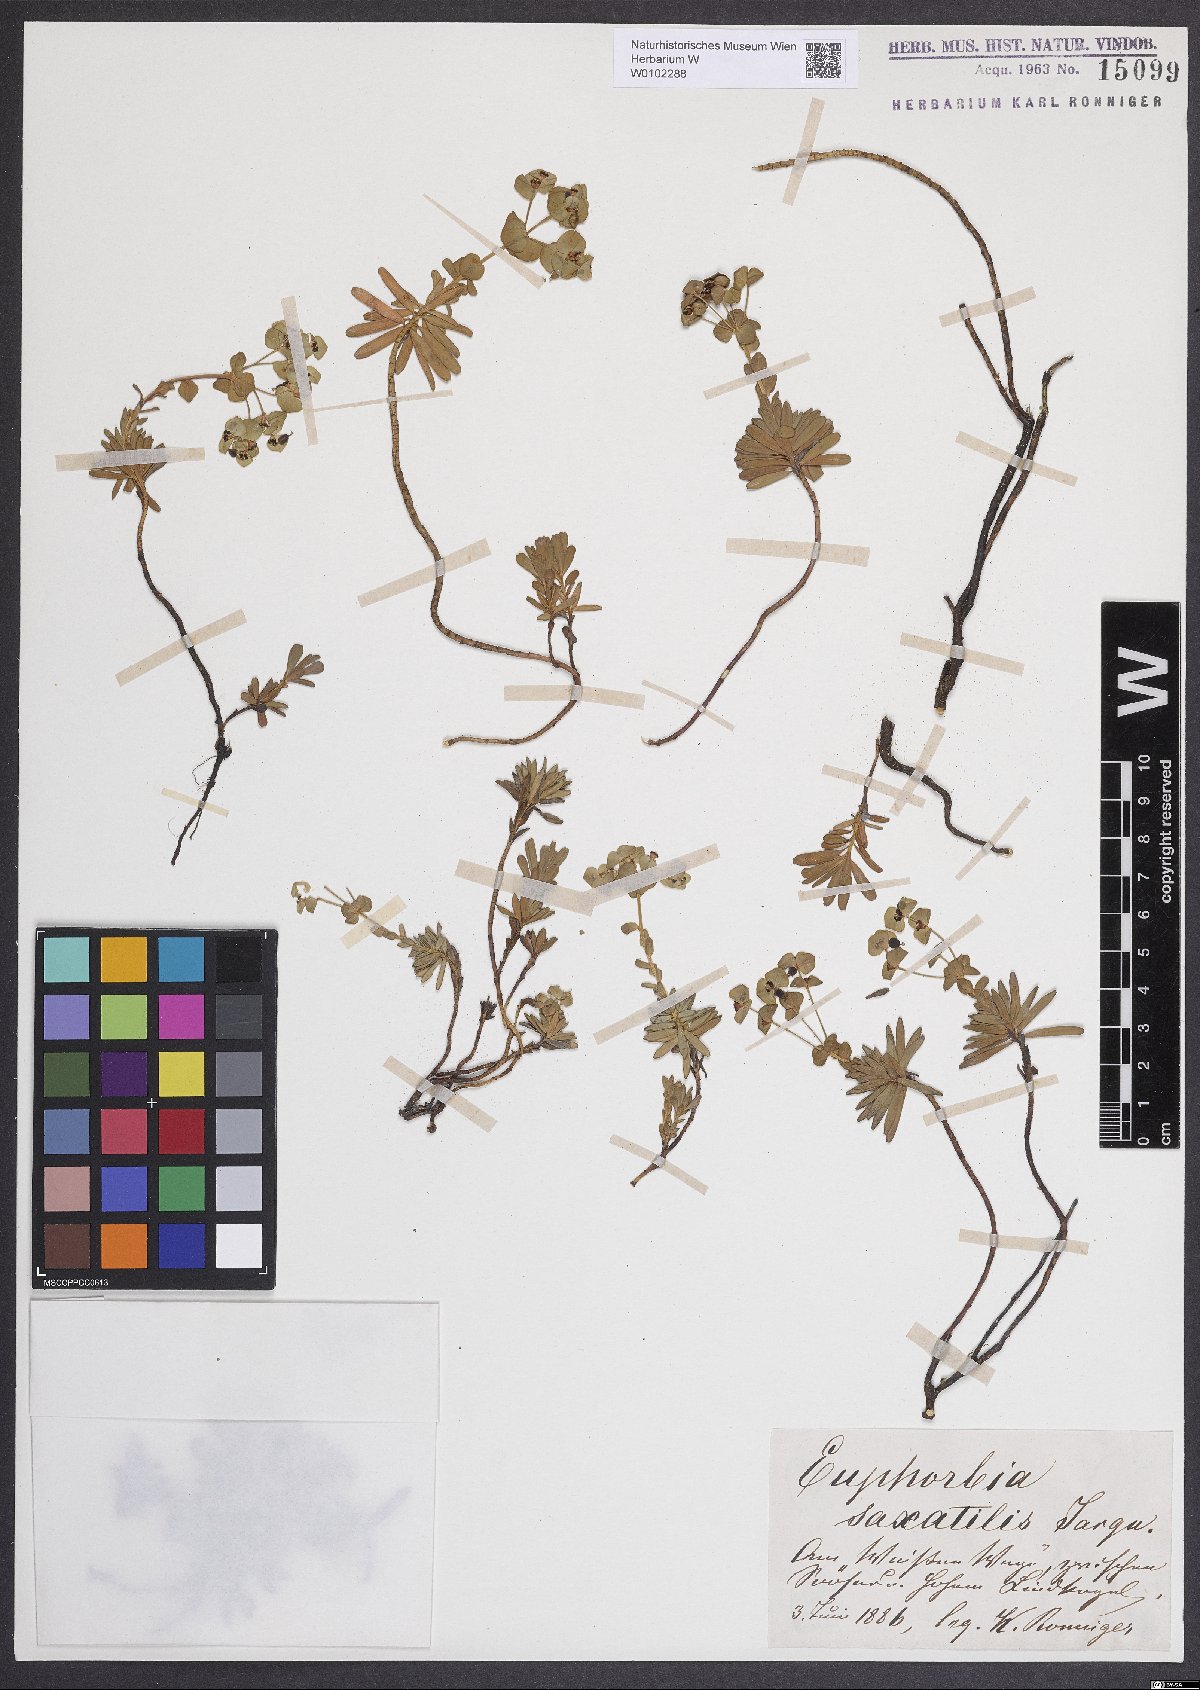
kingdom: Plantae
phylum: Tracheophyta
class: Magnoliopsida
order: Malpighiales
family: Euphorbiaceae
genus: Euphorbia
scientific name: Euphorbia saxatilis
